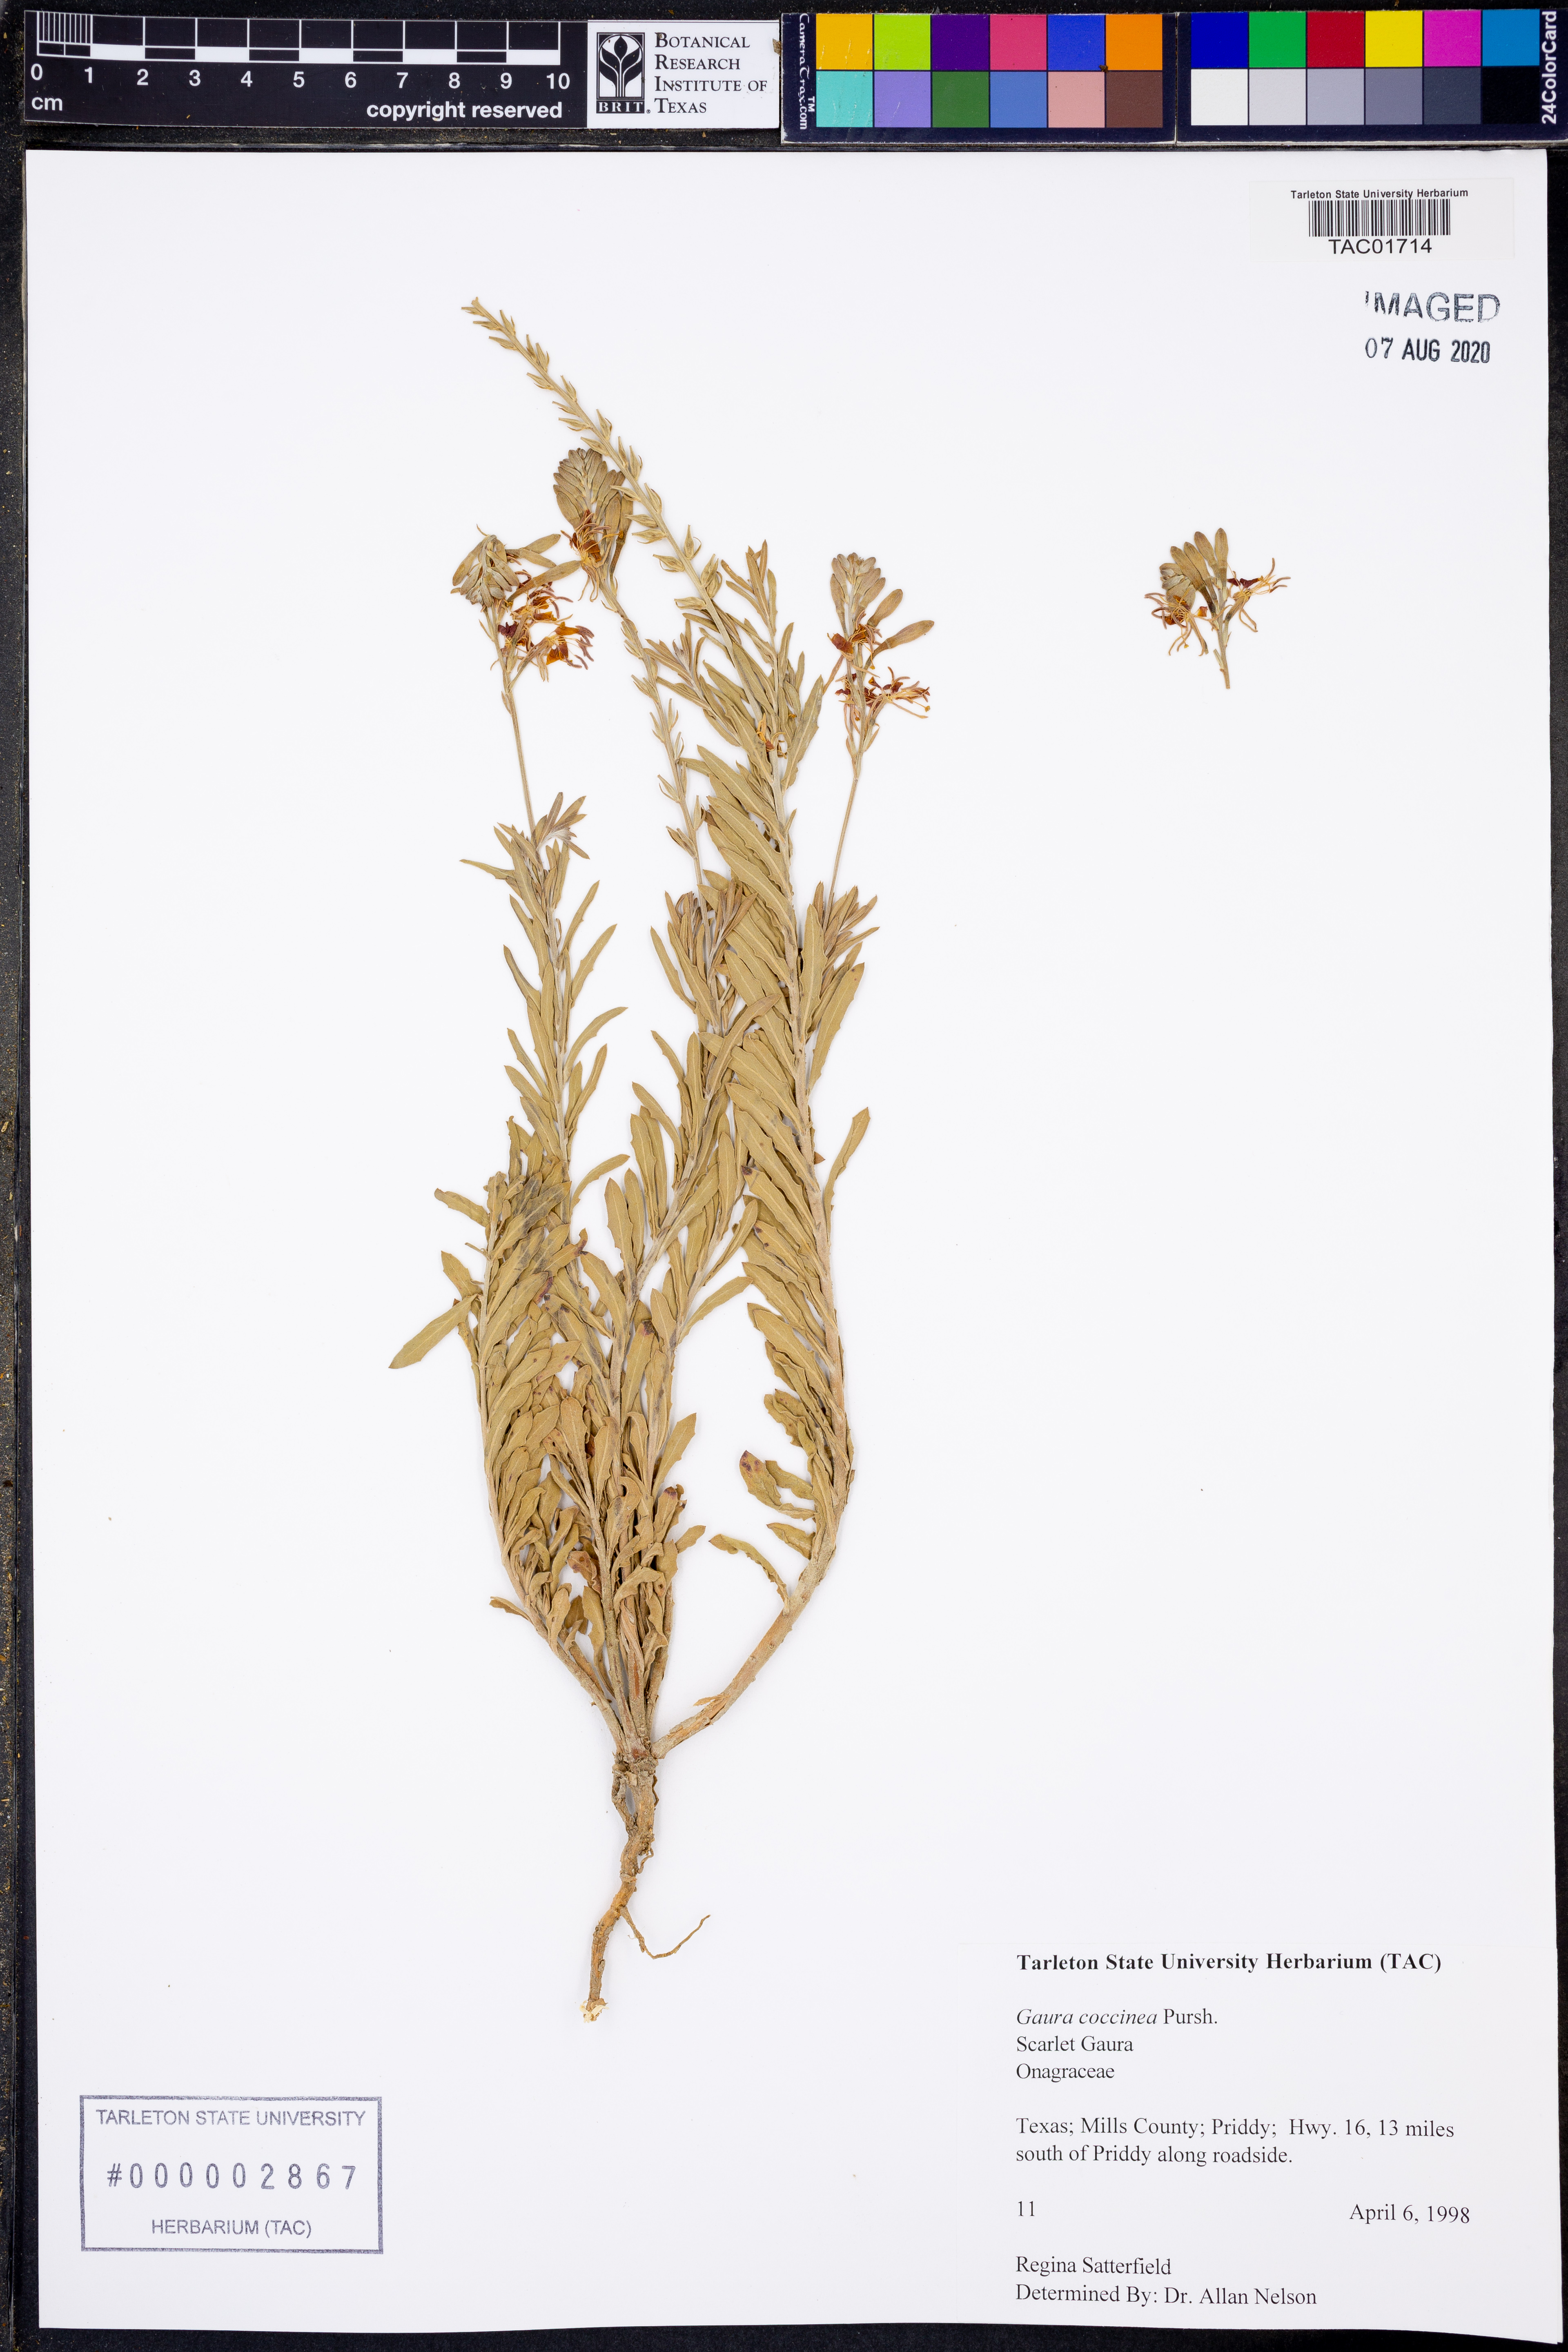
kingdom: Plantae
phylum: Tracheophyta
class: Magnoliopsida
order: Myrtales
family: Onagraceae
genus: Oenothera
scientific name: Oenothera suffrutescens
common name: Scarlet beeblossom
